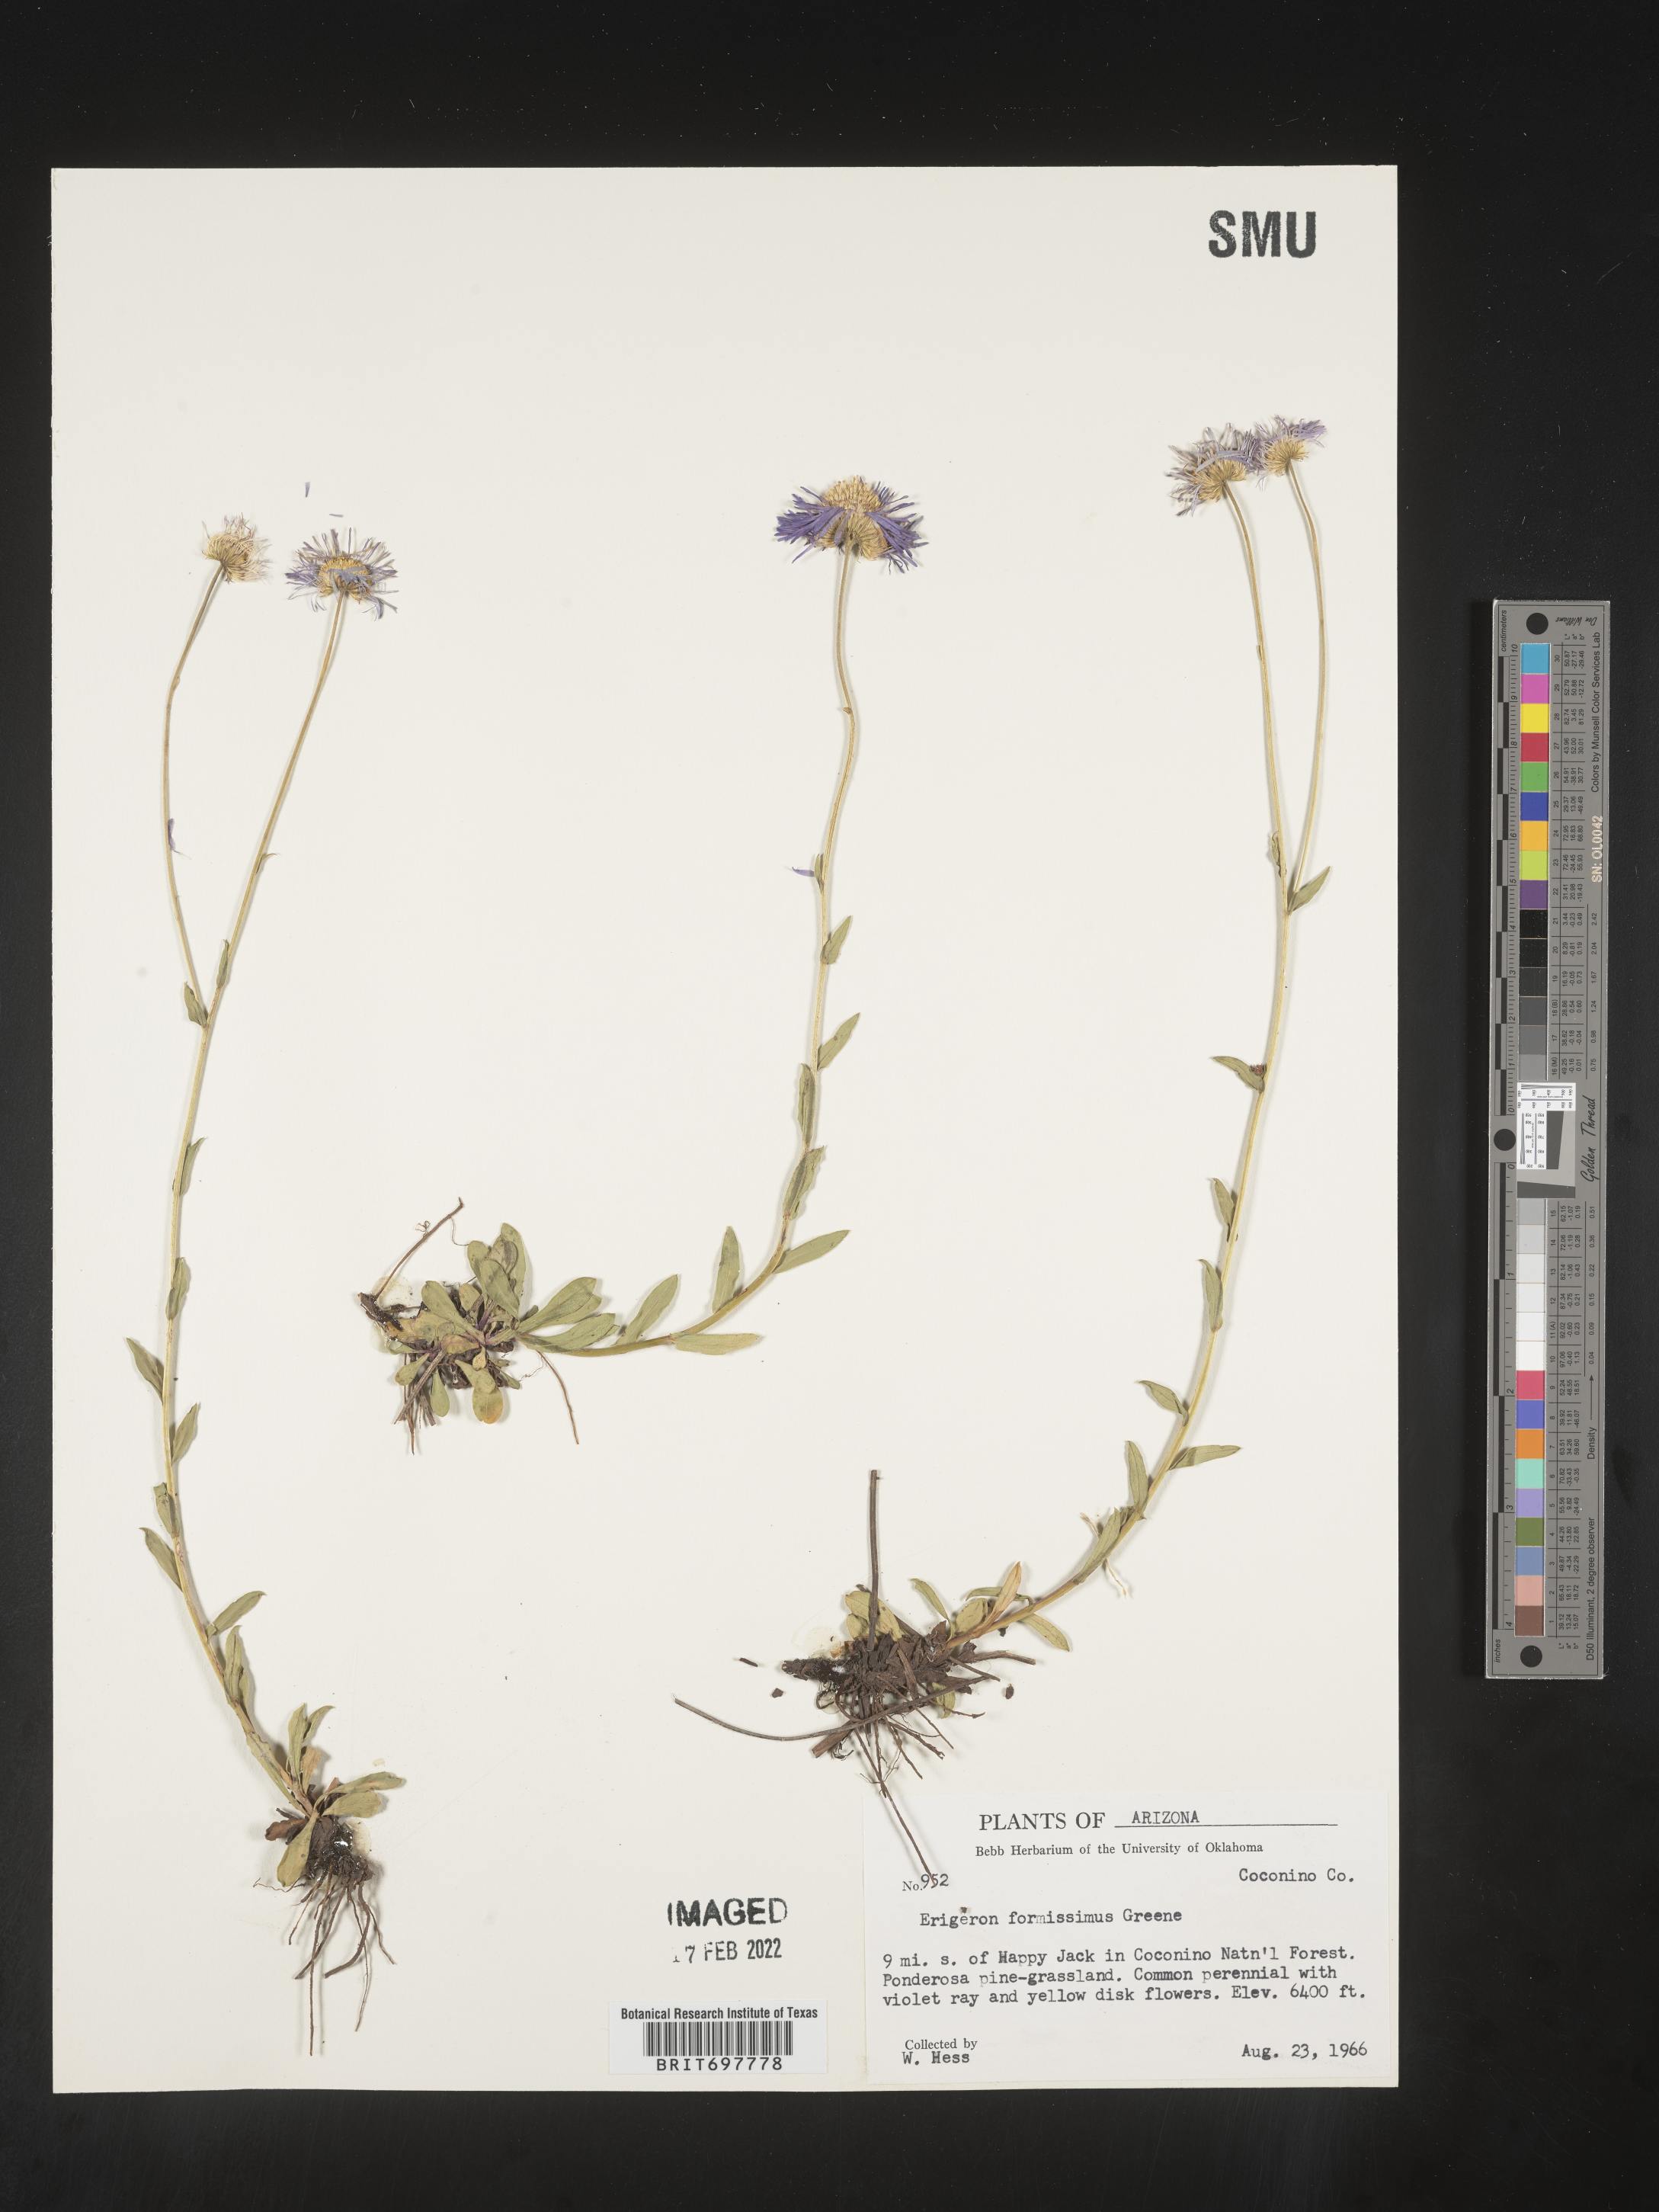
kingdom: Plantae
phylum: Tracheophyta
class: Magnoliopsida
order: Asterales
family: Asteraceae
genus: Erigeron
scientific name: Erigeron formosissimus
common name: Beautiful fleabane
